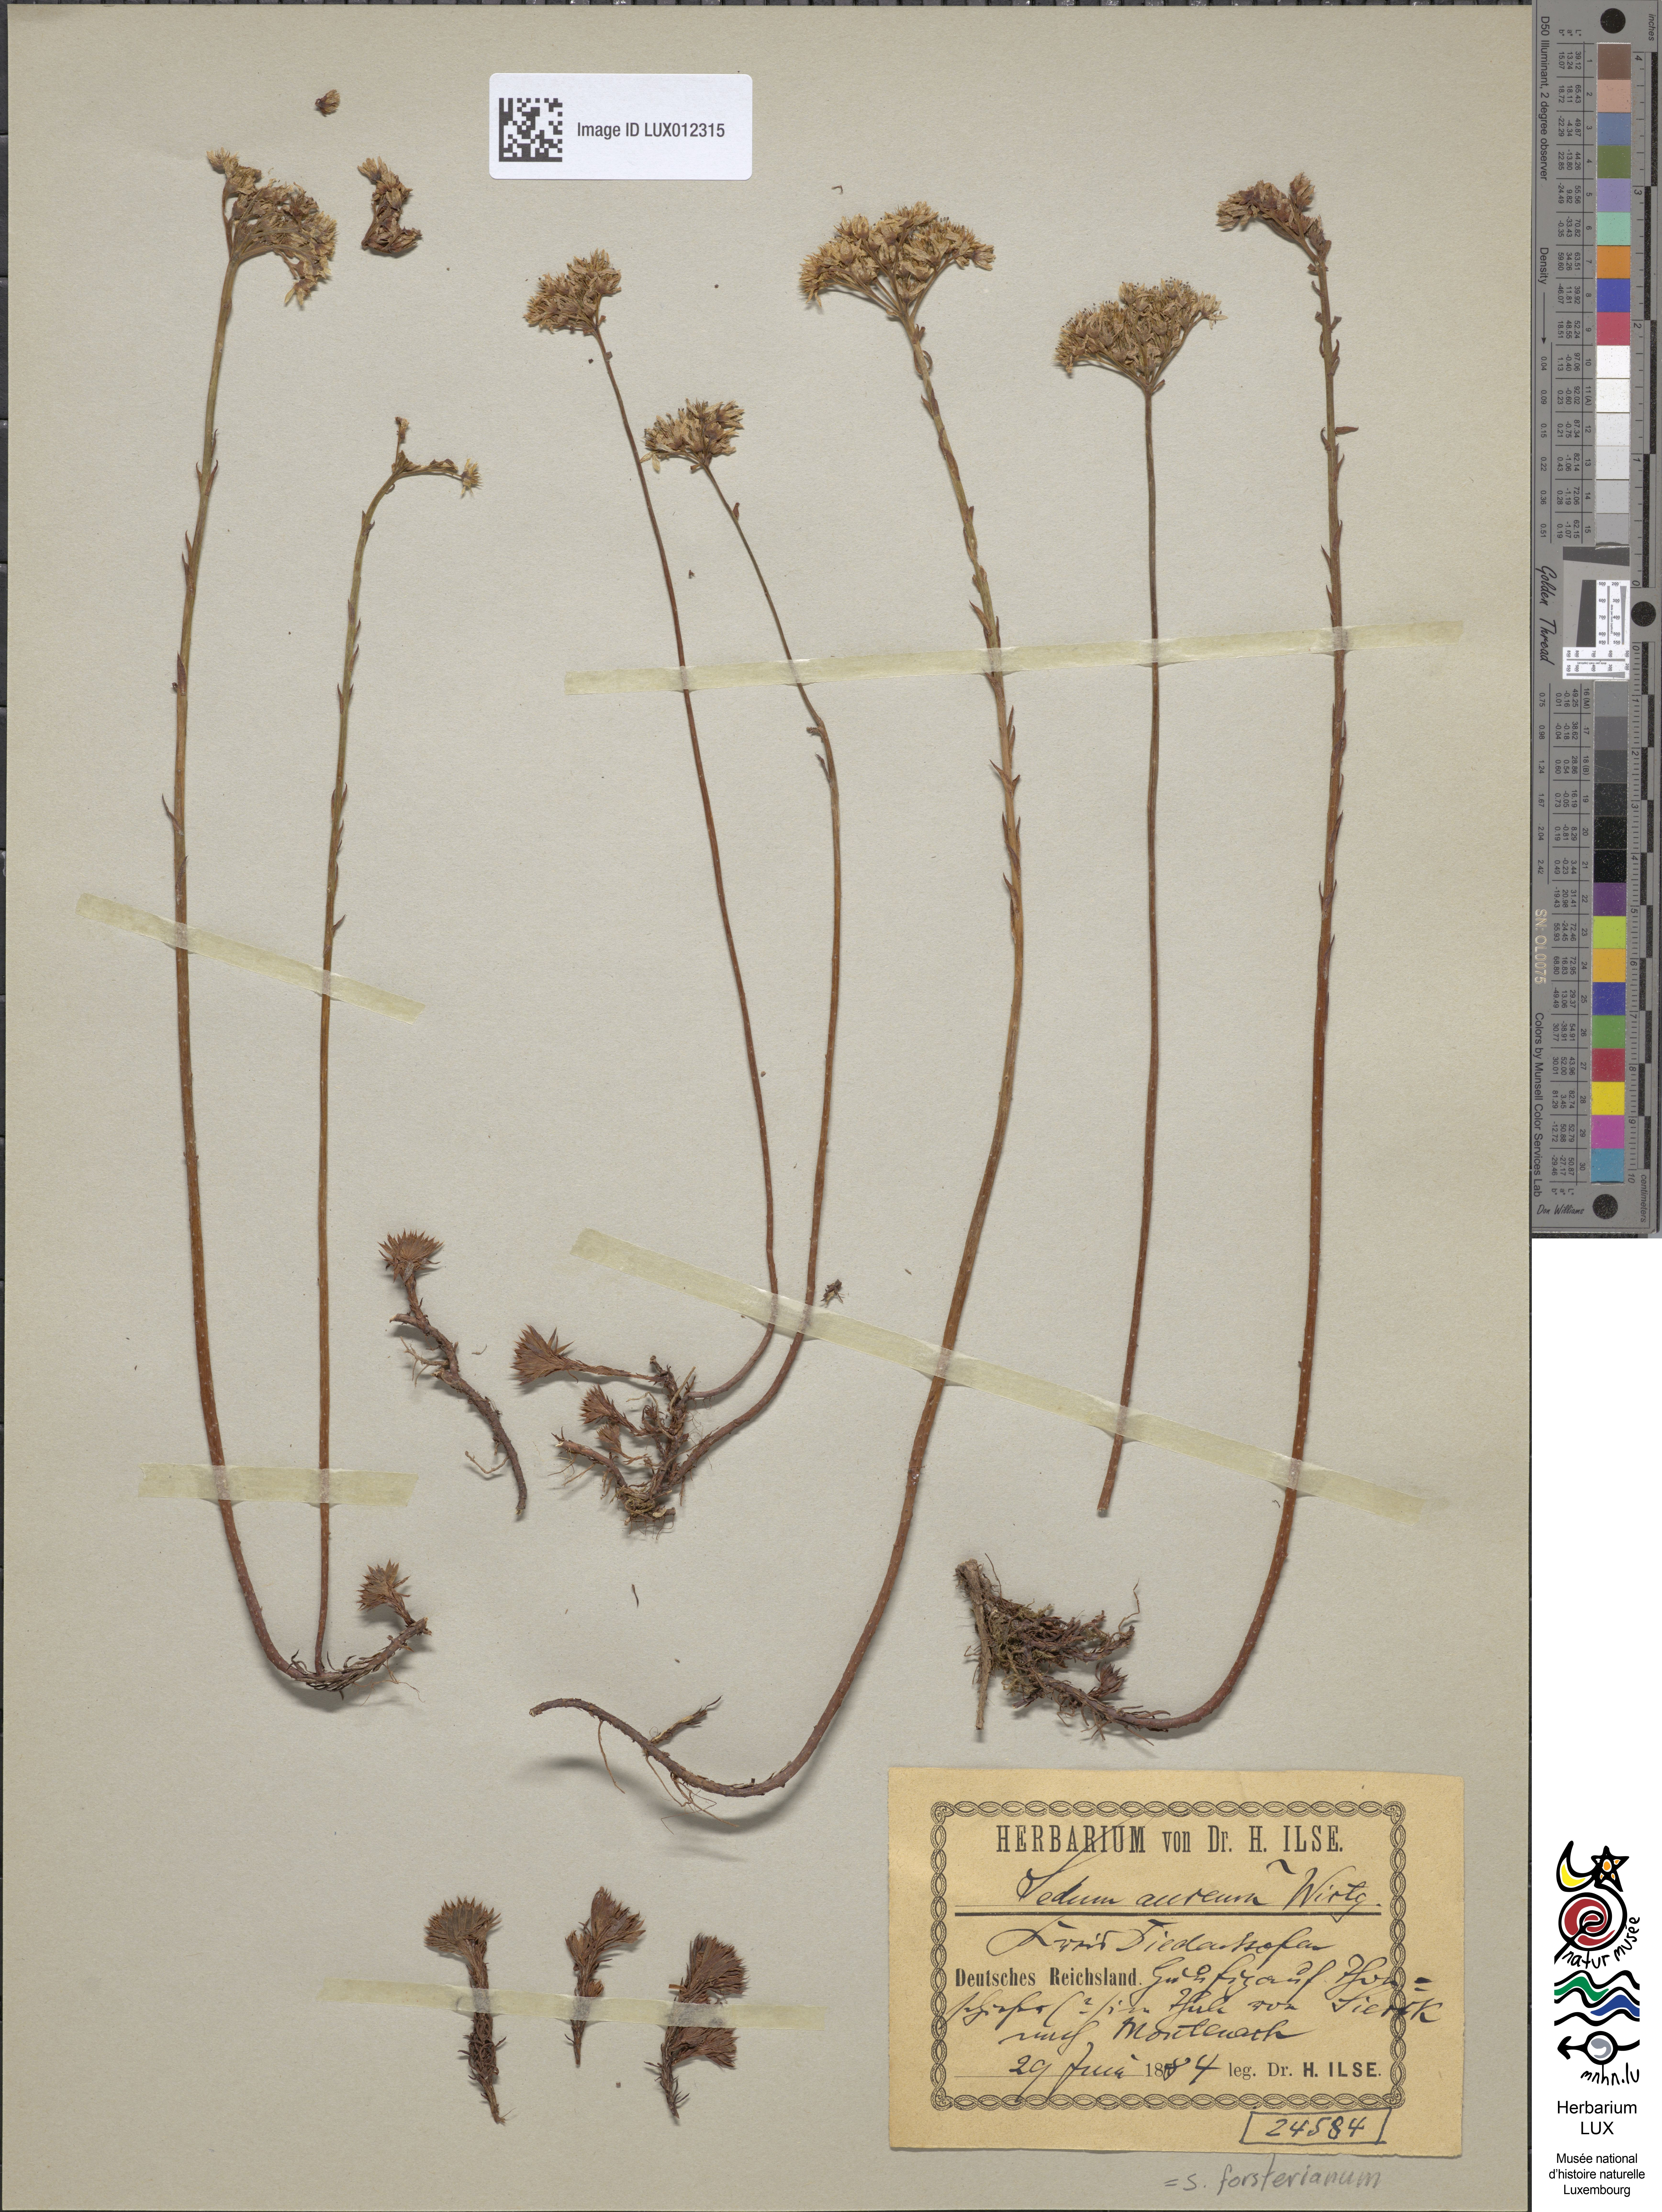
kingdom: Plantae
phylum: Tracheophyta
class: Magnoliopsida
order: Saxifragales
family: Crassulaceae
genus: Petrosedum
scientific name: Petrosedum forsterianum
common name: Forster's stonecrop
